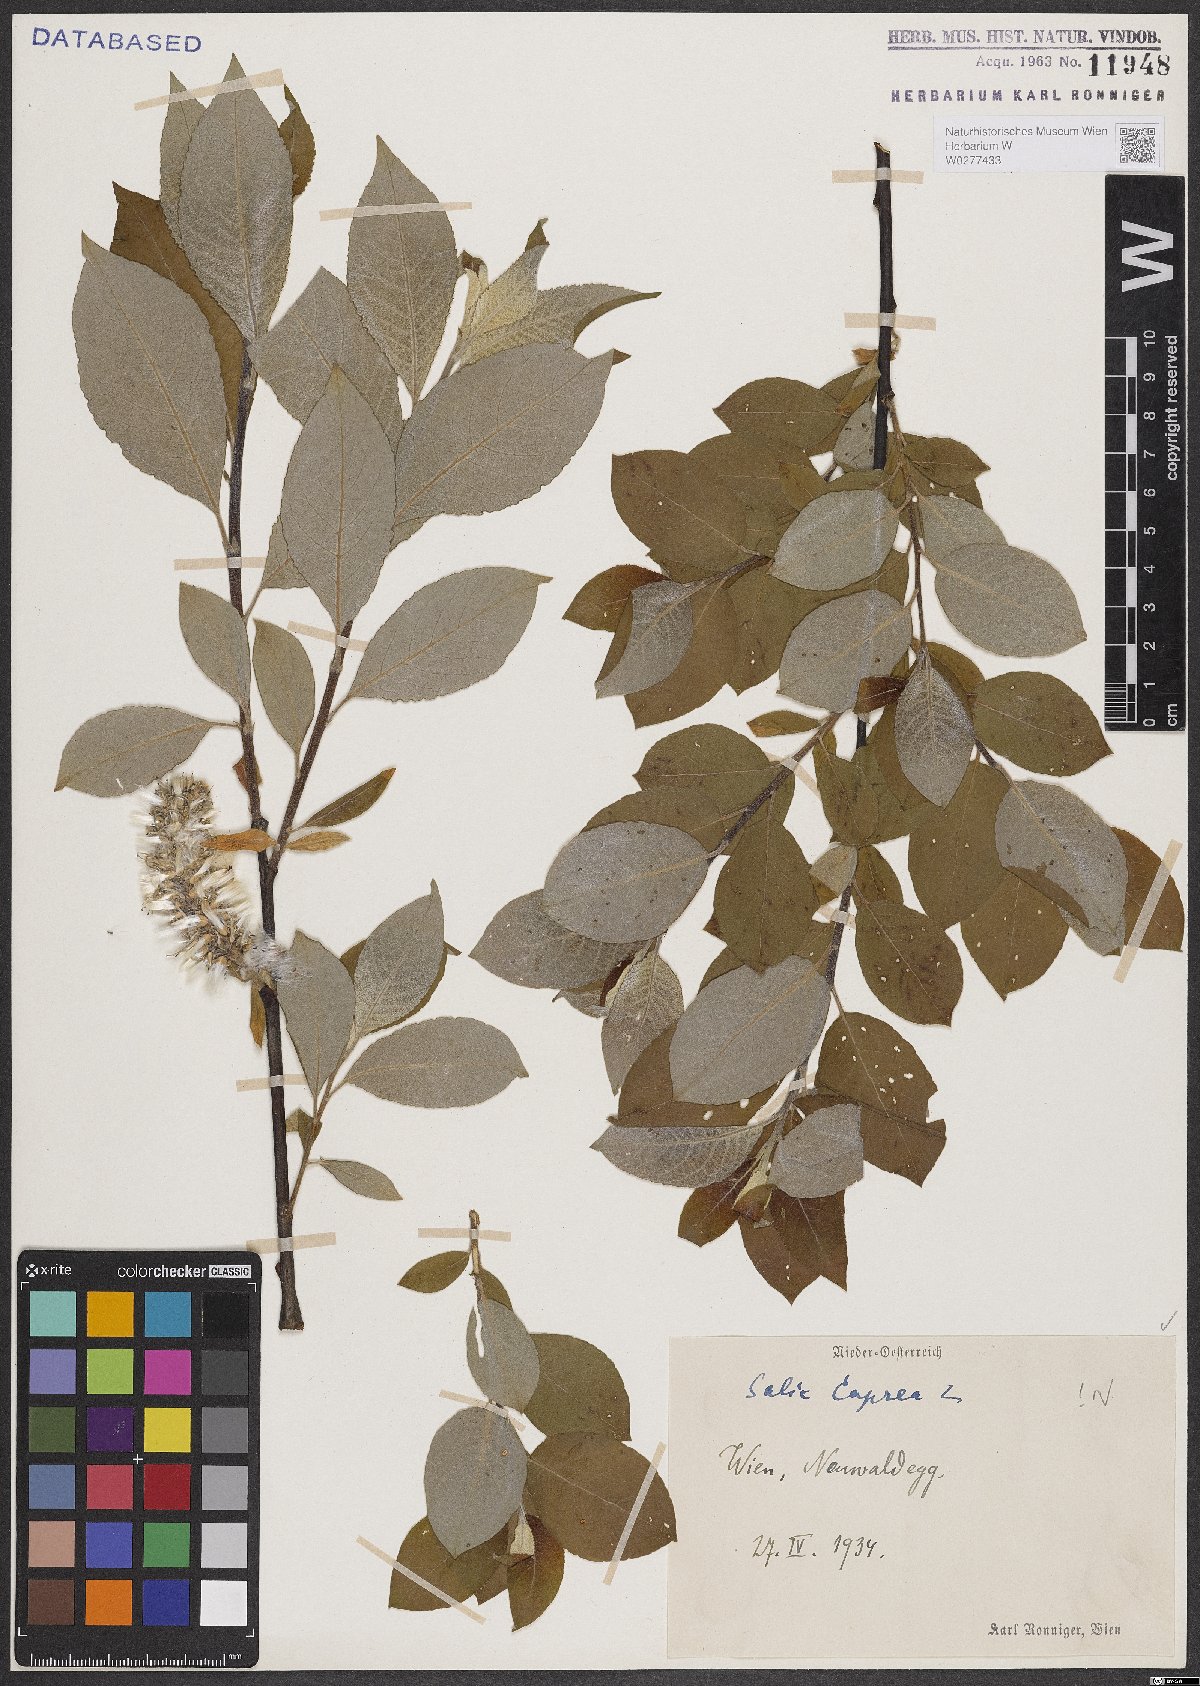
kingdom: Plantae
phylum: Tracheophyta
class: Magnoliopsida
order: Malpighiales
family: Salicaceae
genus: Salix
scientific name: Salix caprea
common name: Goat willow
